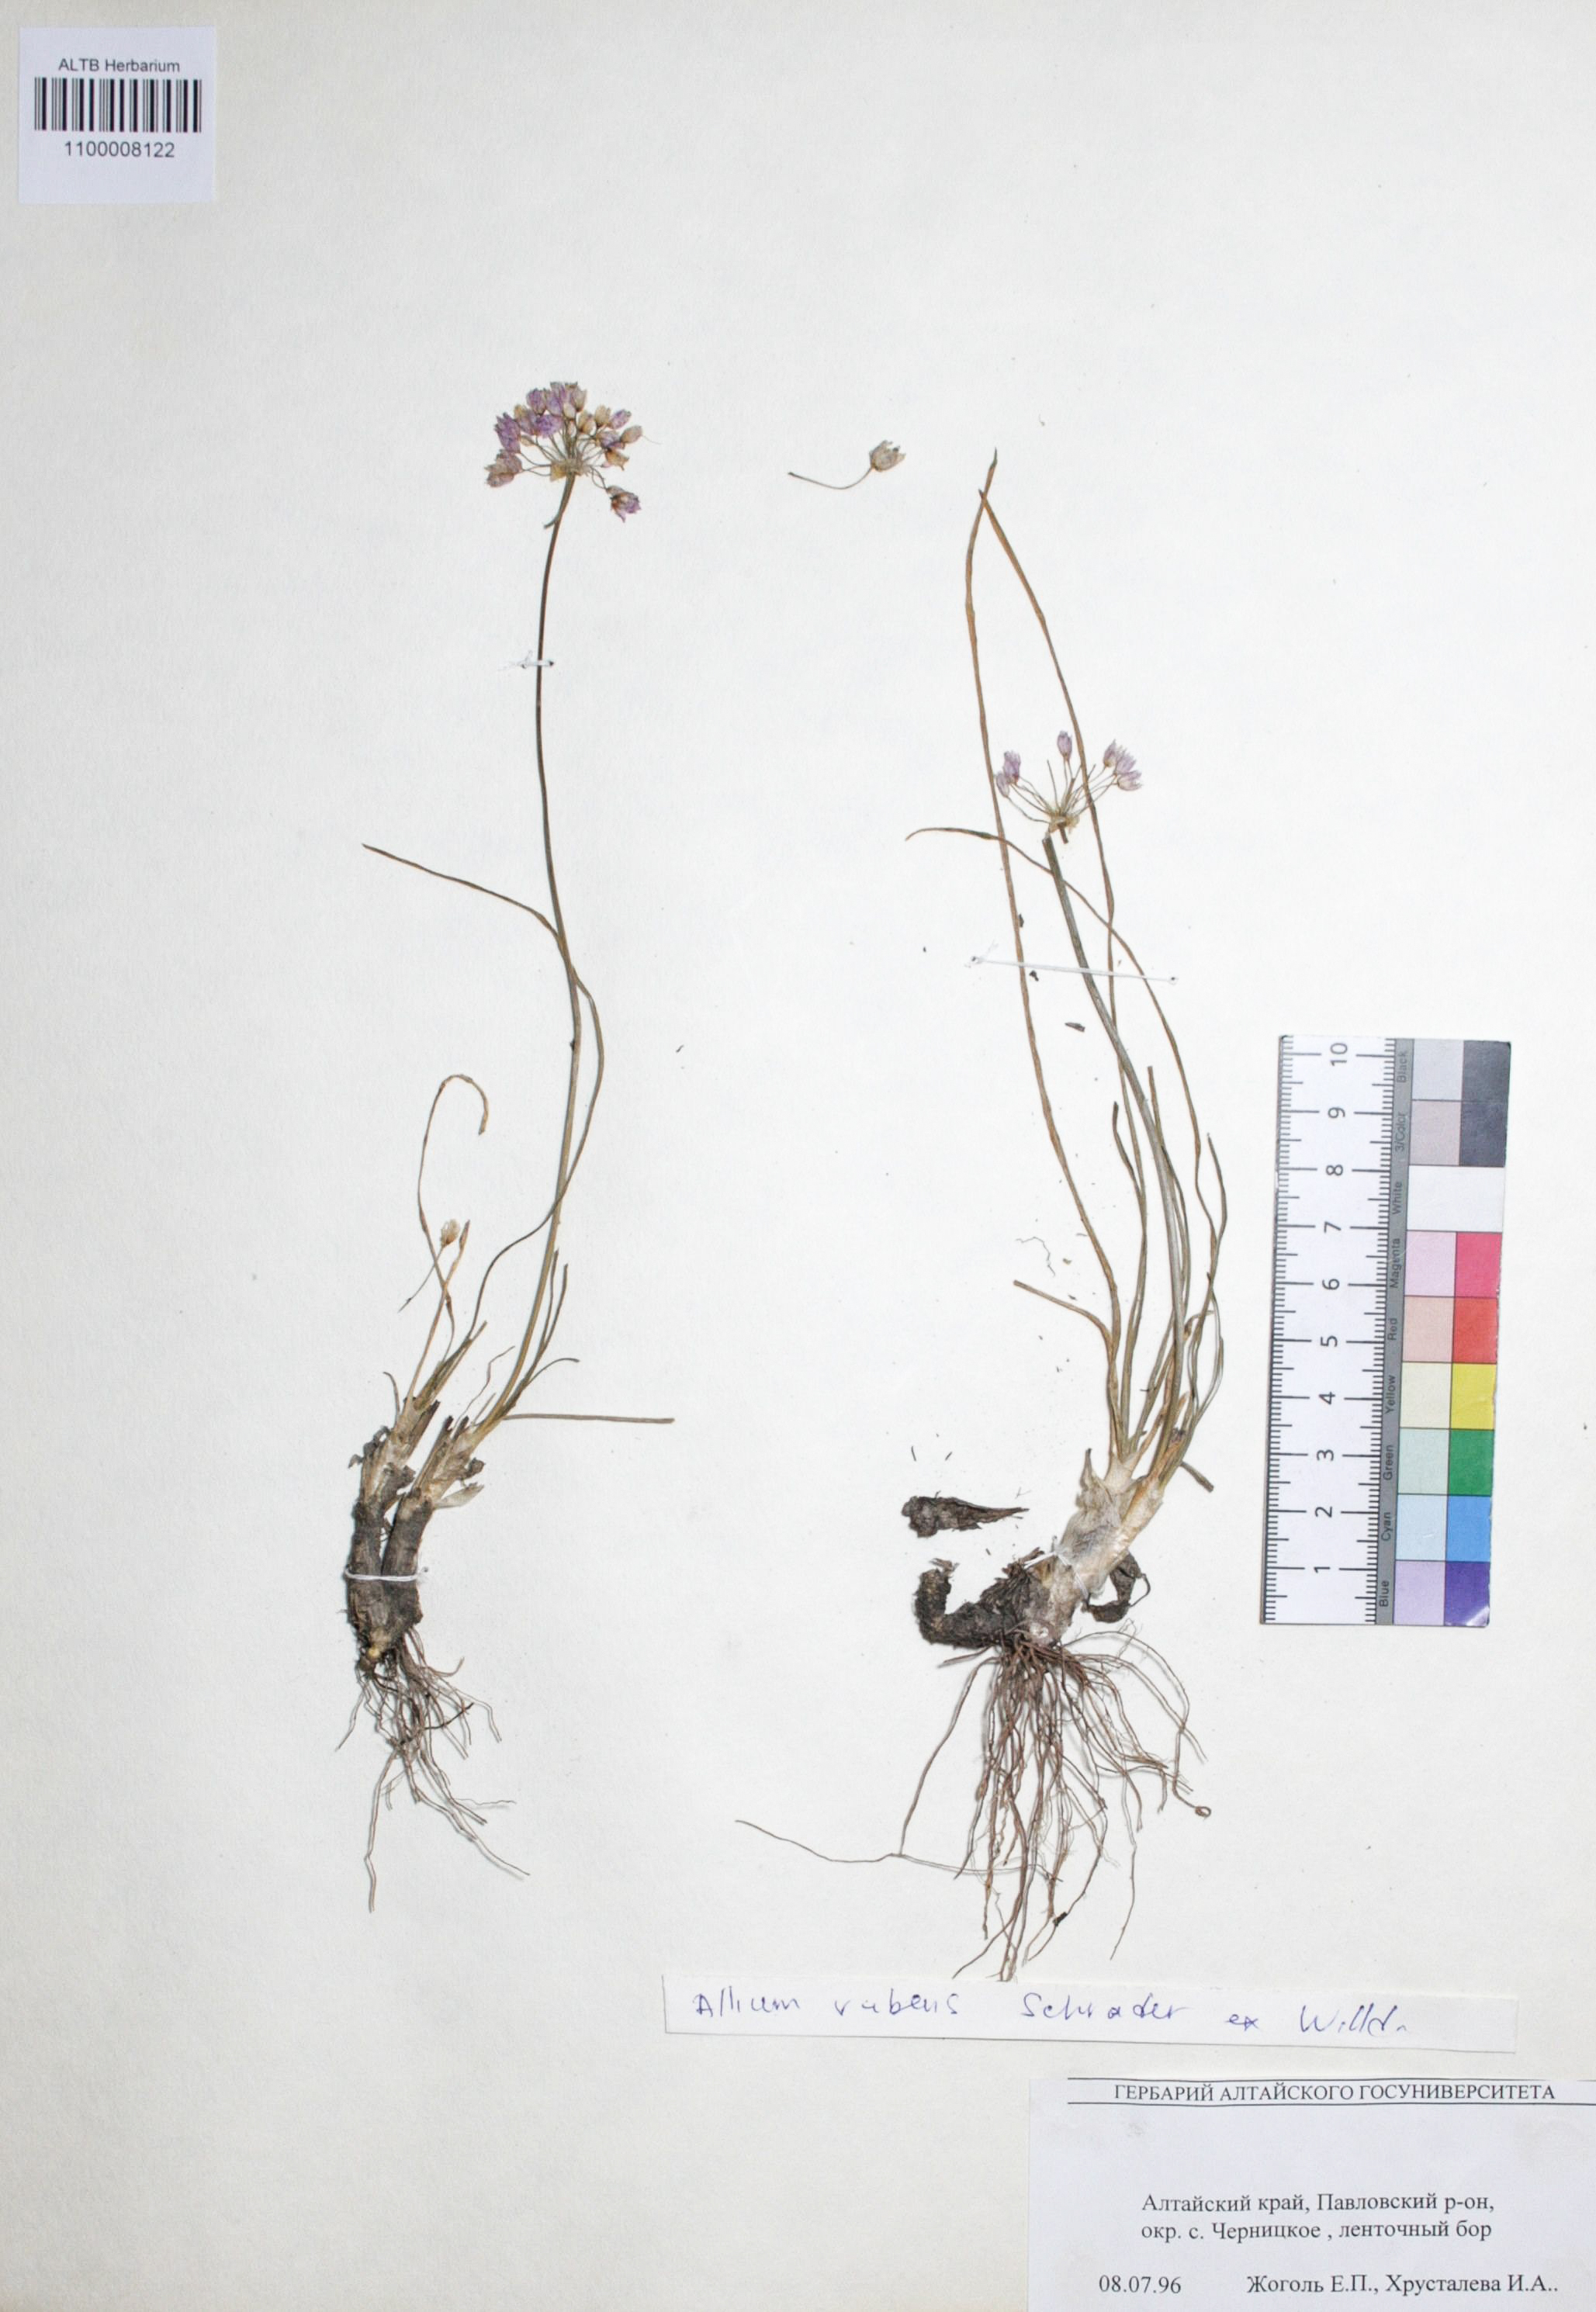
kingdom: Plantae
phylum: Tracheophyta
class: Liliopsida
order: Asparagales
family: Amaryllidaceae
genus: Allium
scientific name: Allium rubens
